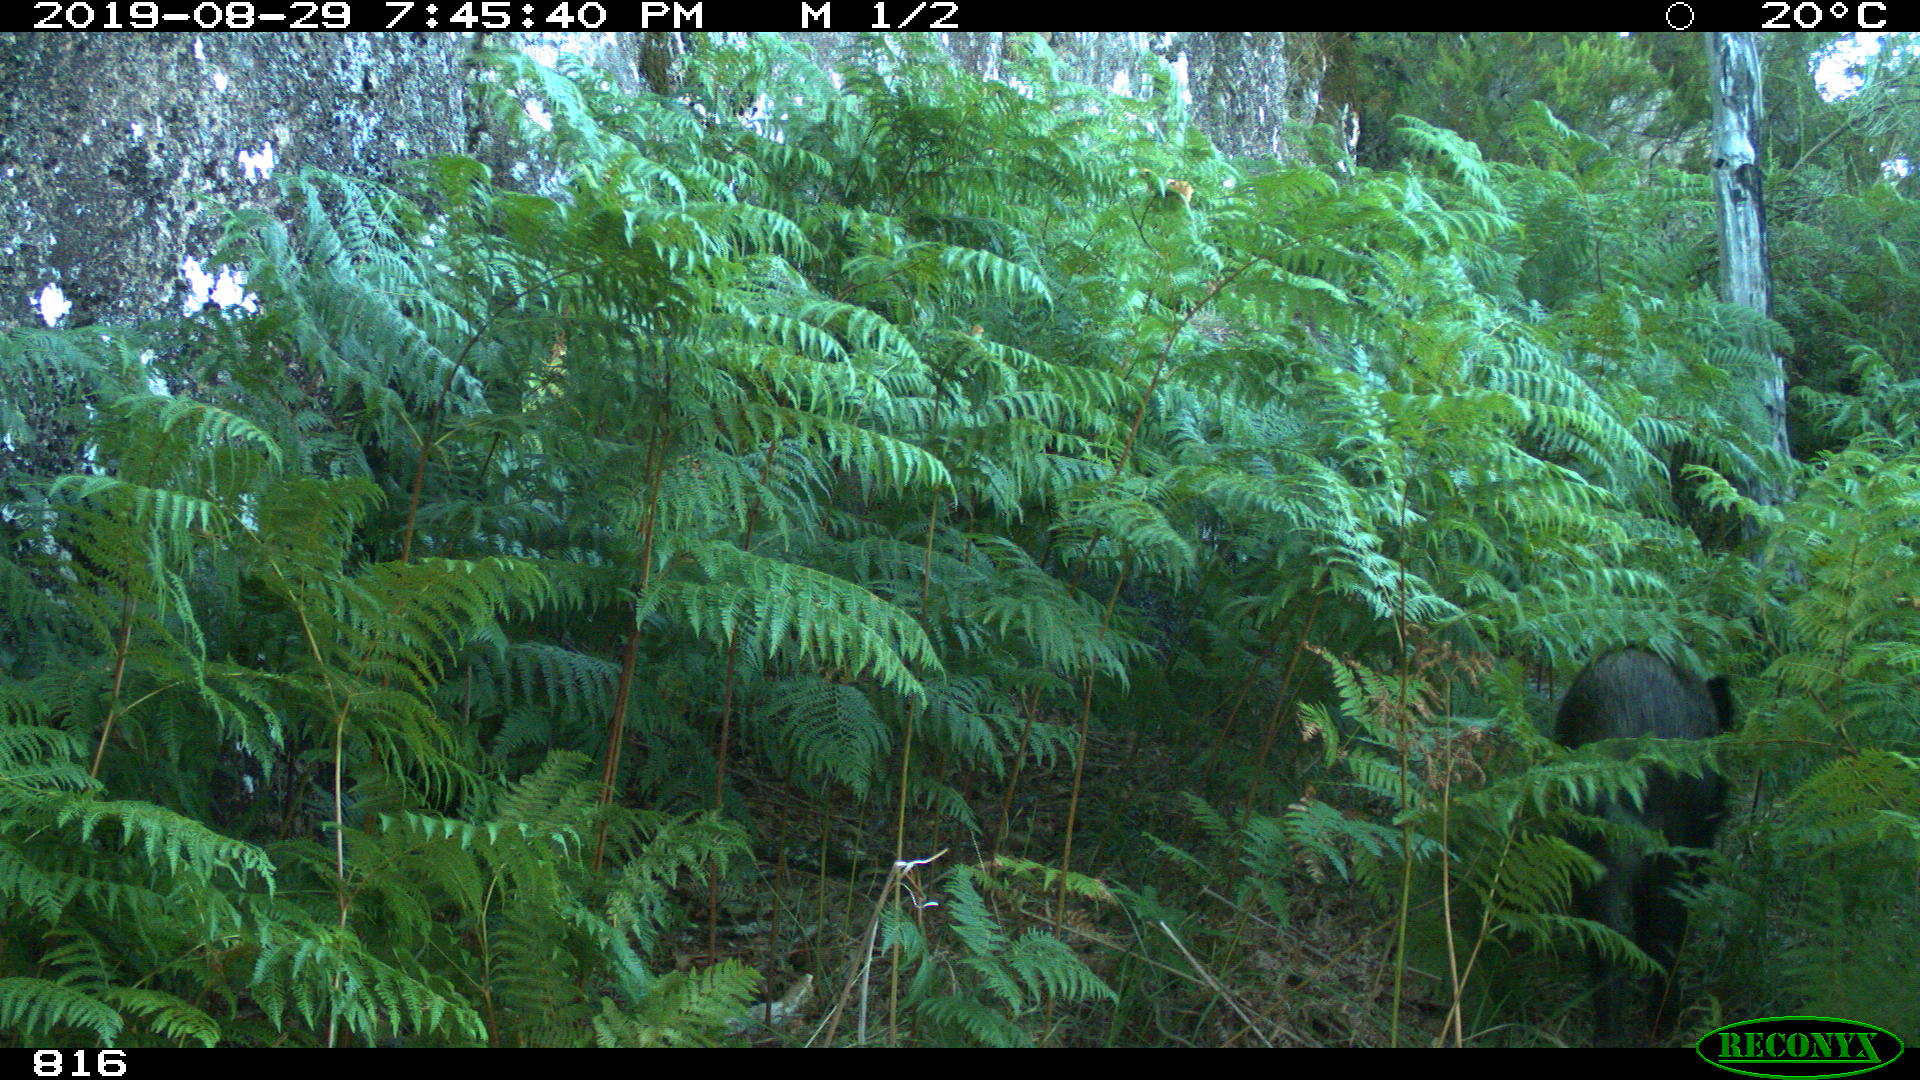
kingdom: Animalia
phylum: Chordata
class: Mammalia
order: Artiodactyla
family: Suidae
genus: Sus
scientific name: Sus scrofa
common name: Wild boar
